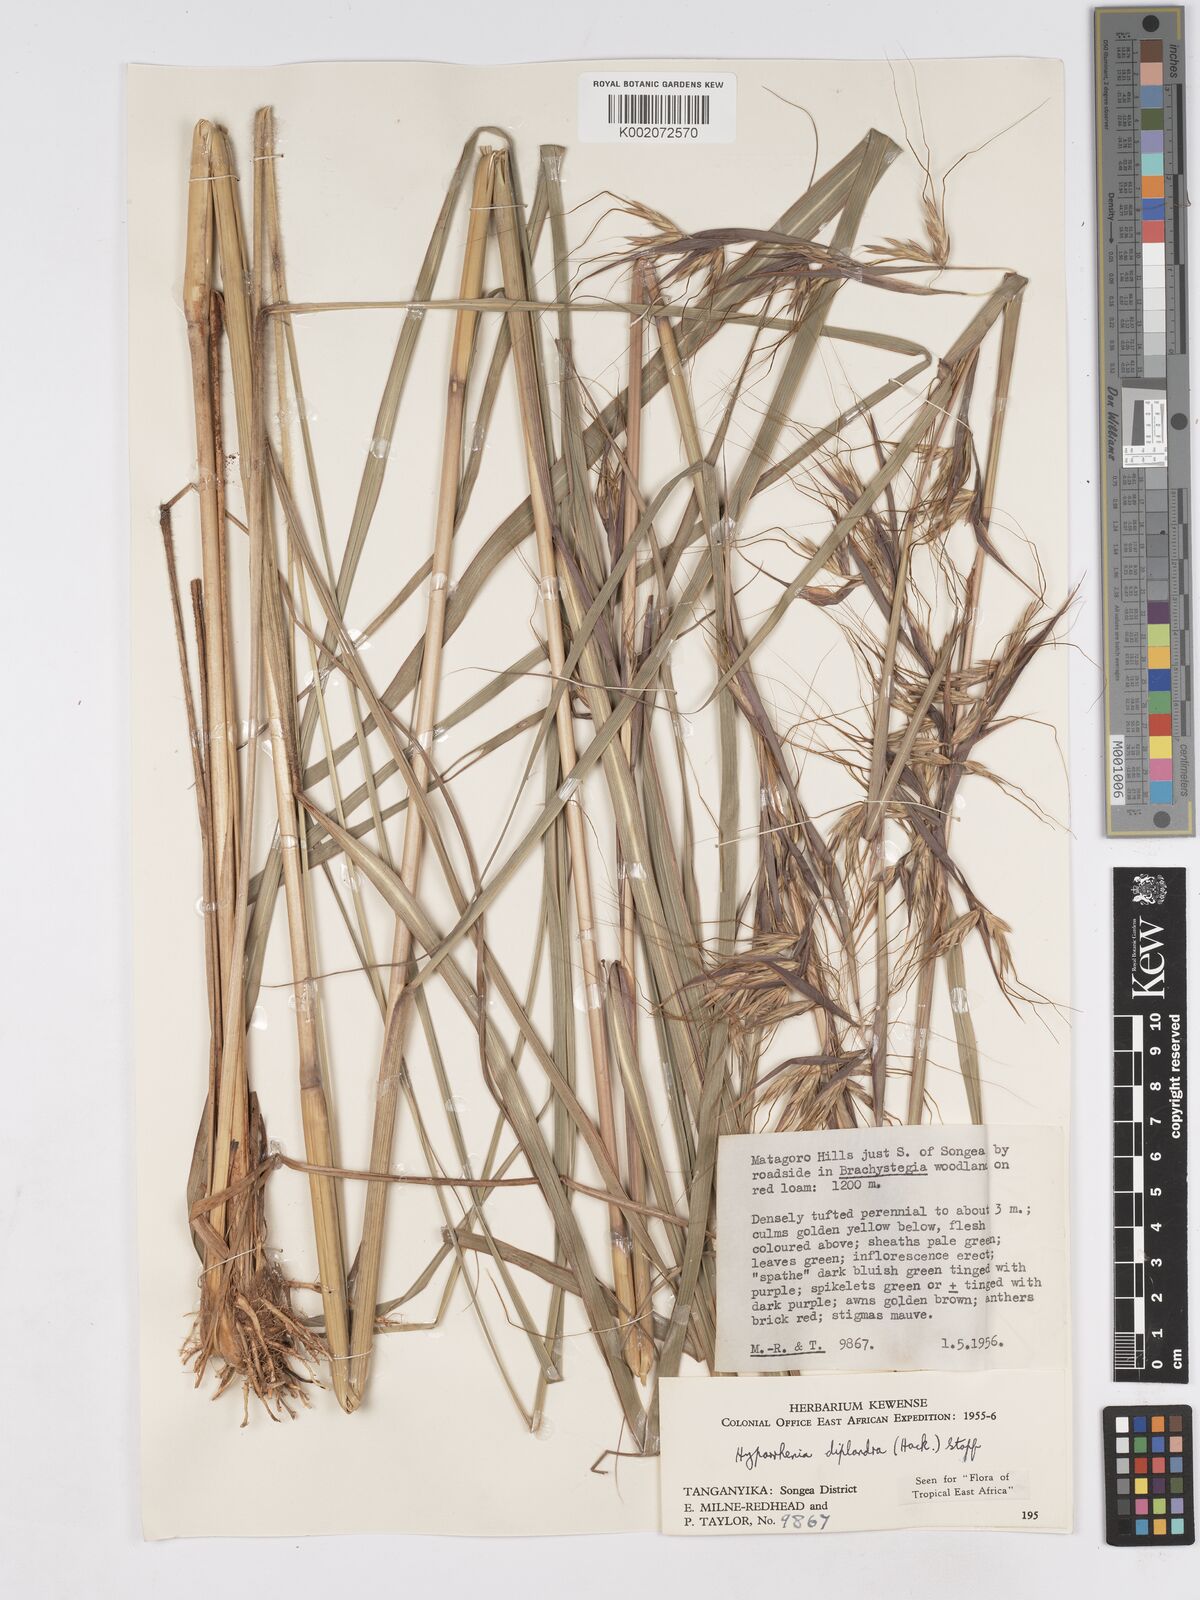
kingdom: Plantae
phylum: Tracheophyta
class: Liliopsida
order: Poales
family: Poaceae
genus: Hyparrhenia
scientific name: Hyparrhenia diplandra
